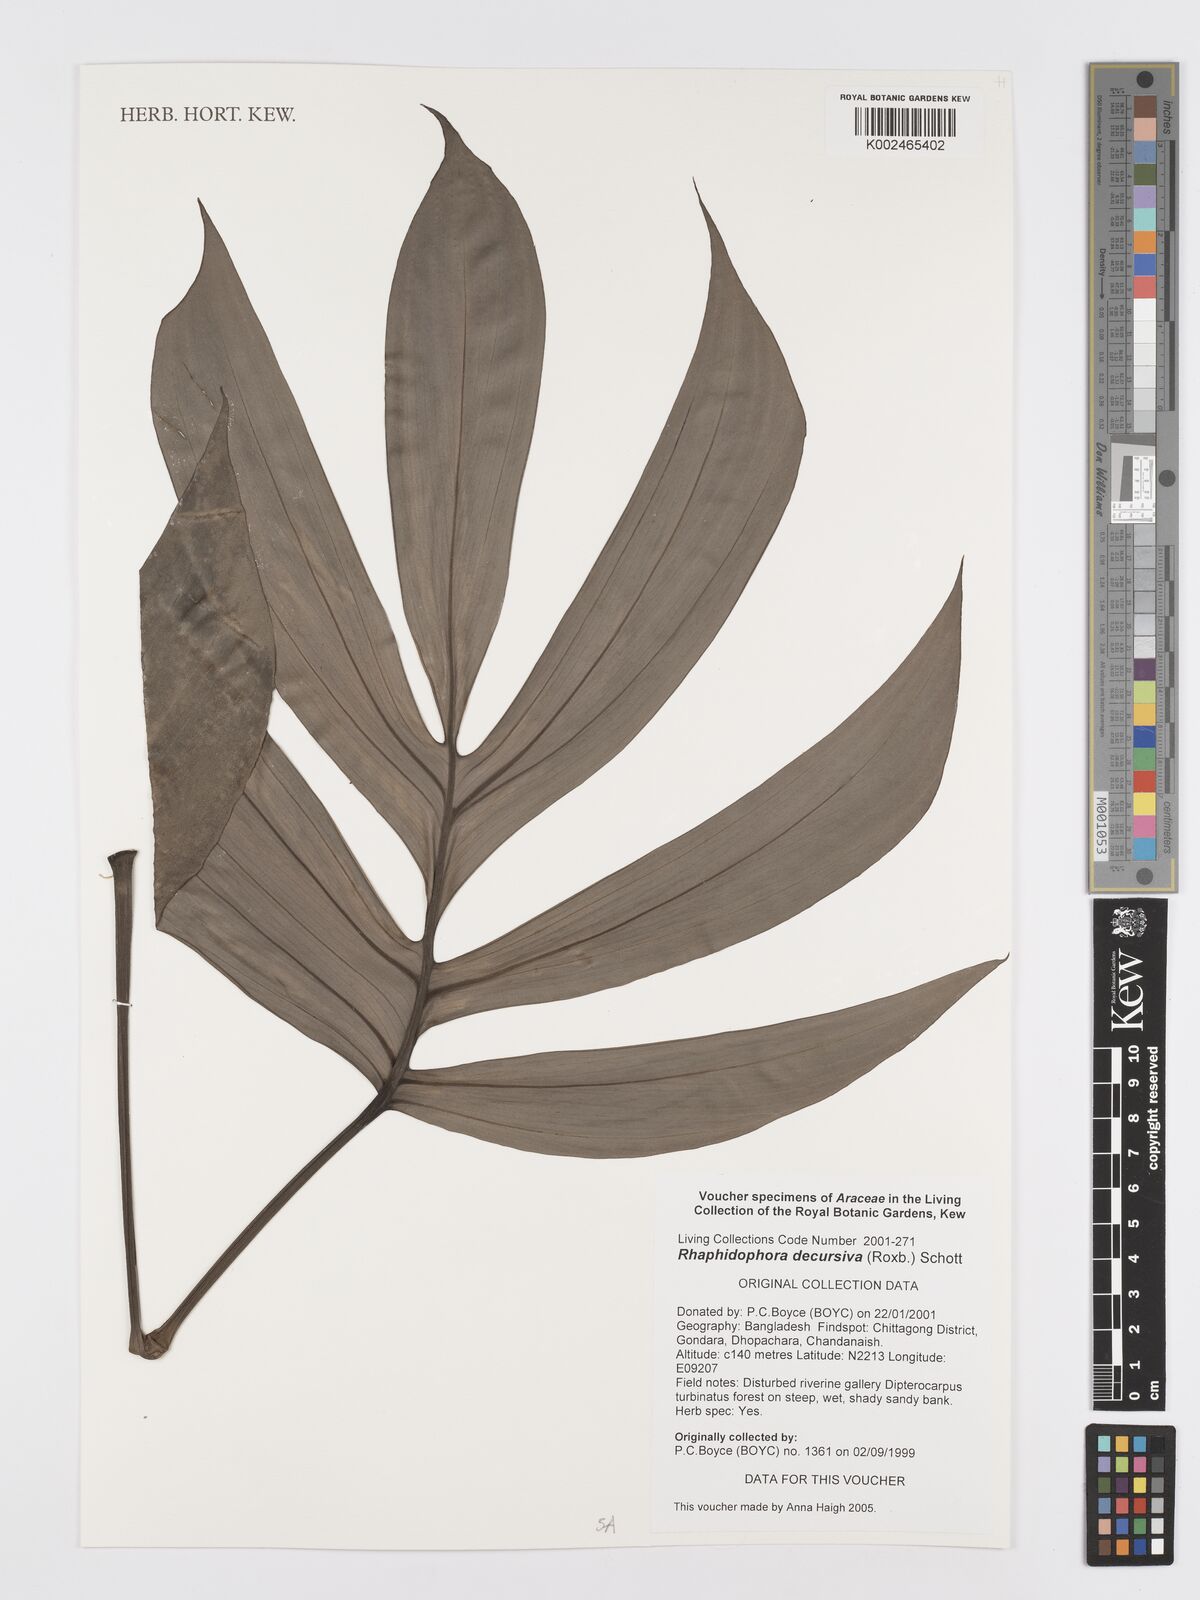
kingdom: Plantae
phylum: Tracheophyta
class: Liliopsida
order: Alismatales
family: Araceae
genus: Rhaphidophora
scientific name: Rhaphidophora decursiva
